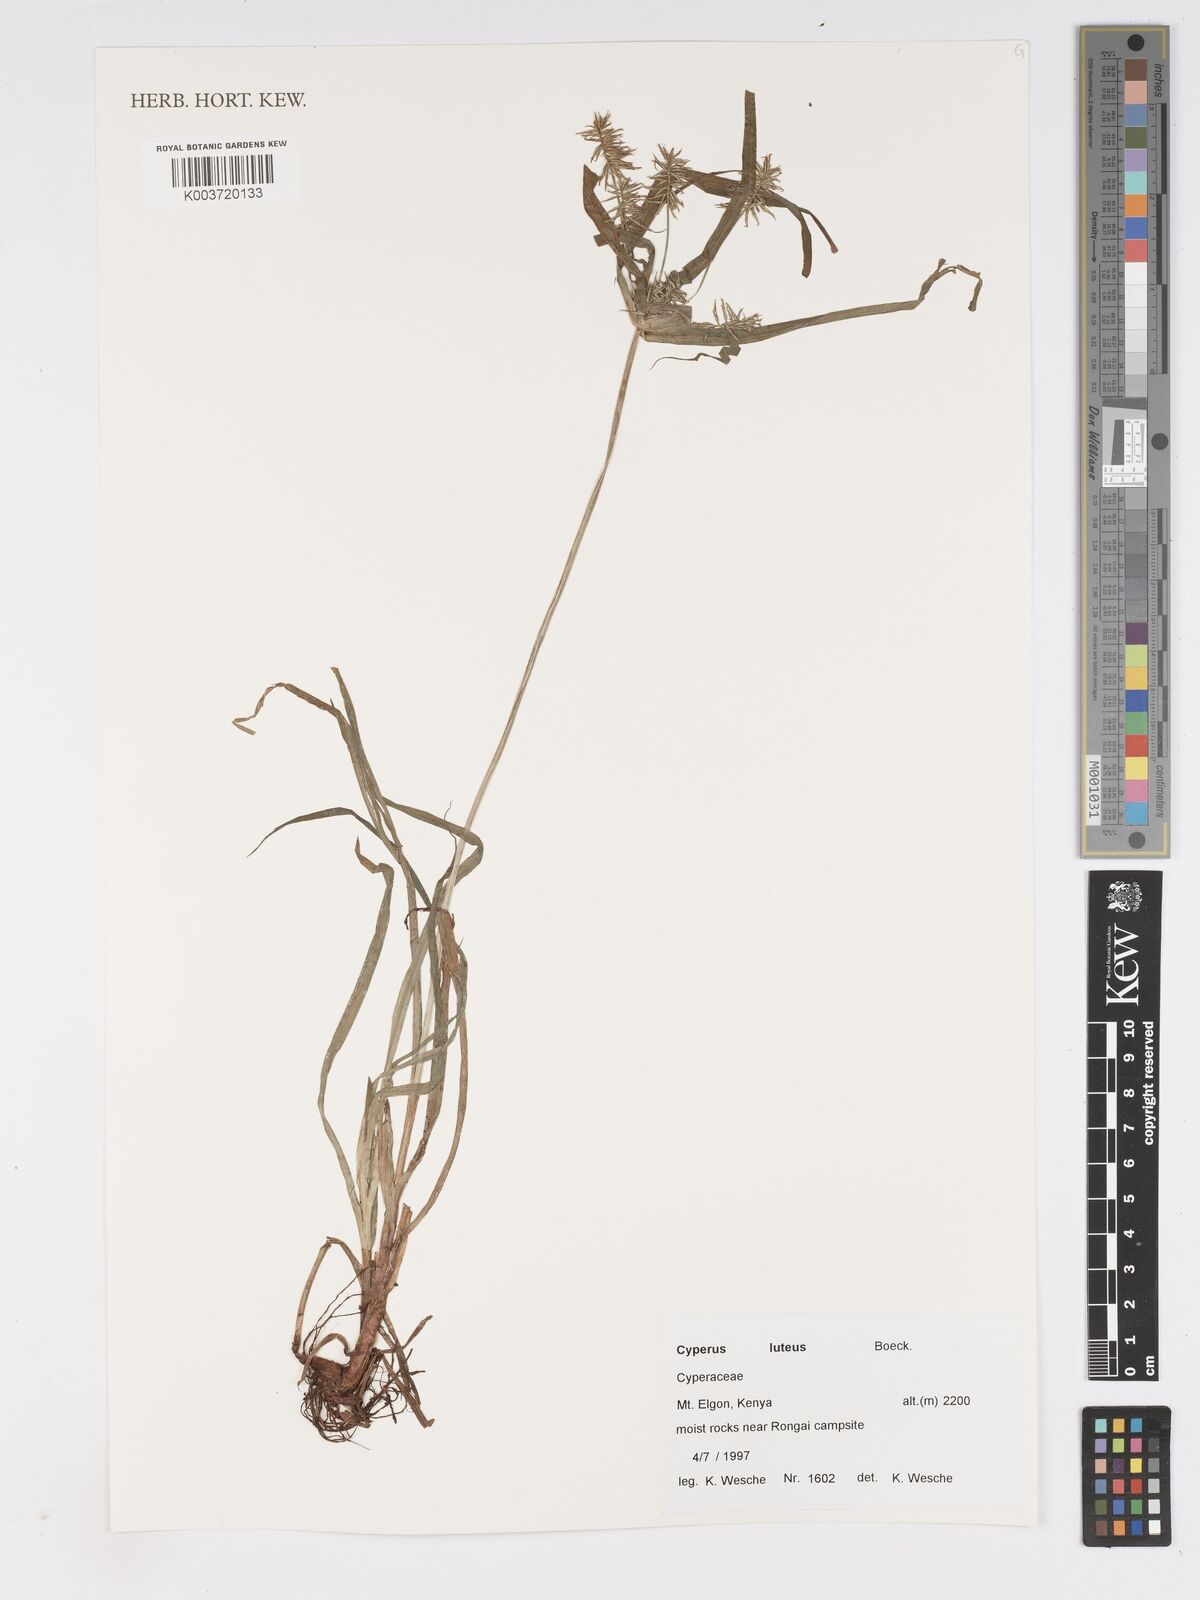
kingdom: Plantae
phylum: Tracheophyta
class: Liliopsida
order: Poales
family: Cyperaceae
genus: Cyperus
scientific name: Cyperus luteus
